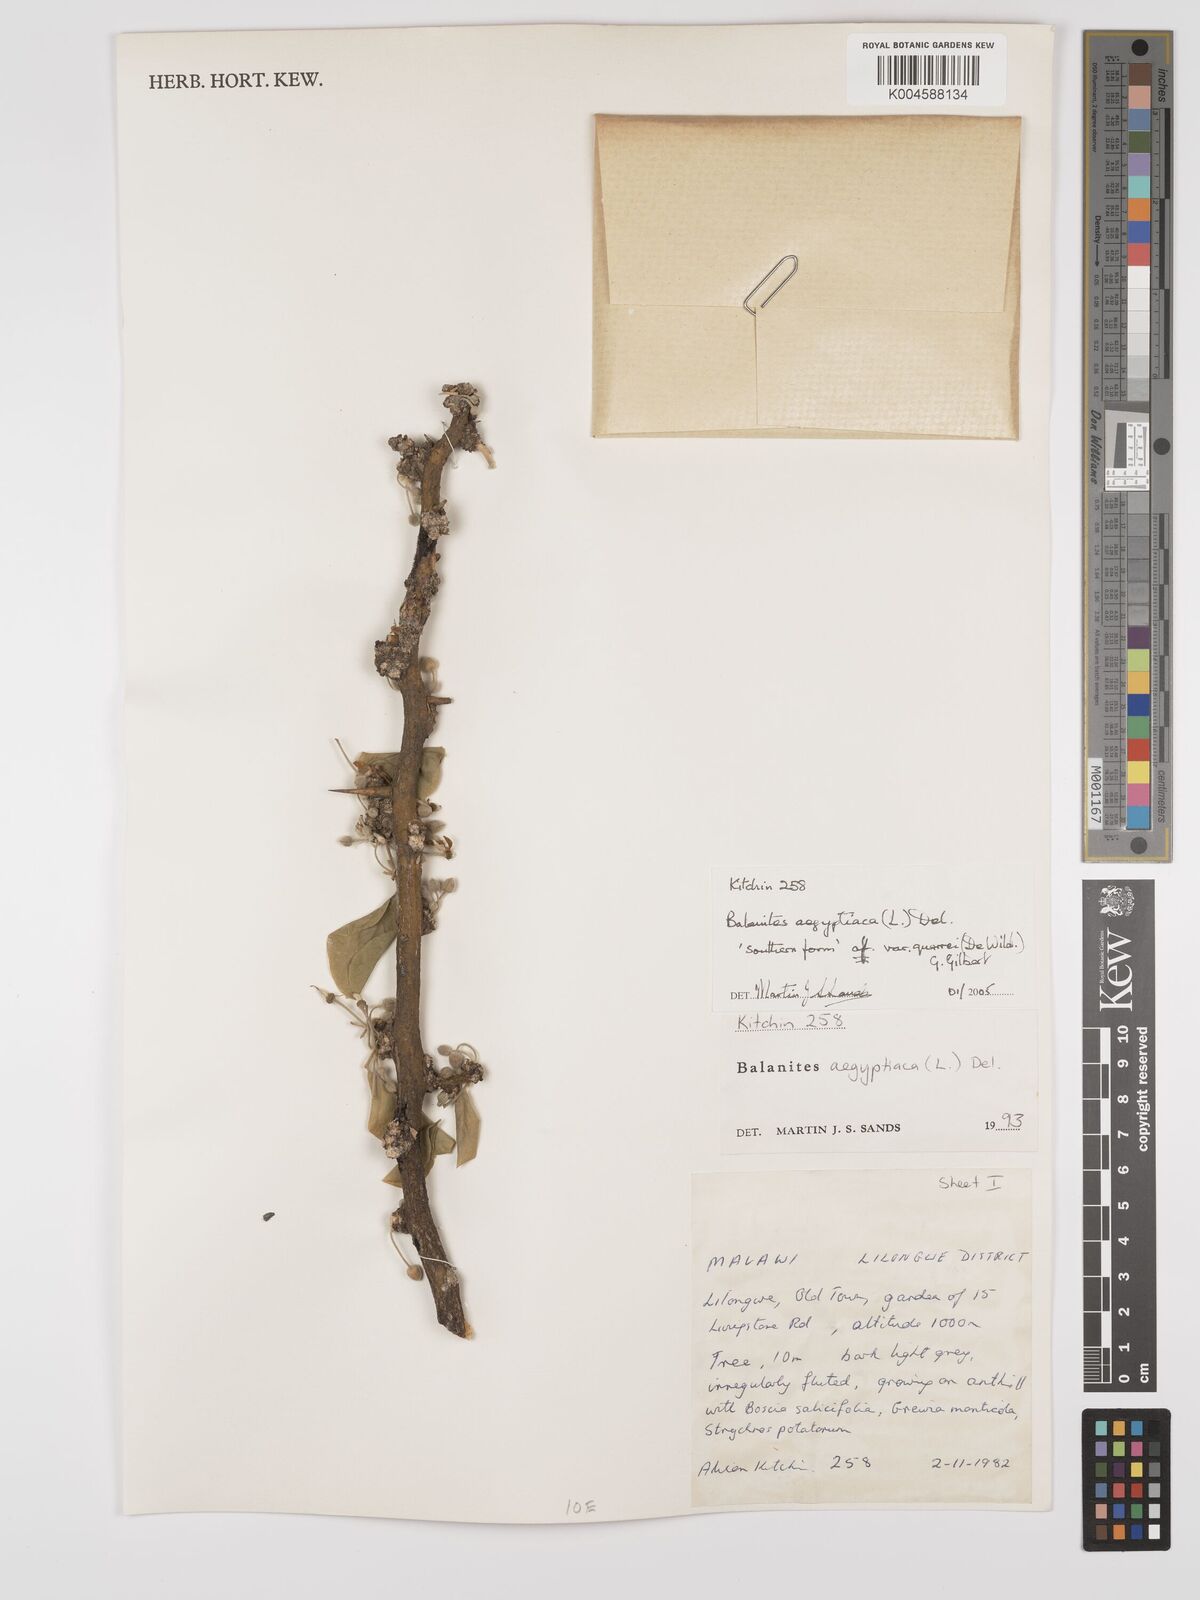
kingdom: Plantae
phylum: Tracheophyta
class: Magnoliopsida
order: Zygophyllales
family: Zygophyllaceae
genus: Balanites
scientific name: Balanites aegyptiaca
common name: Balanites
